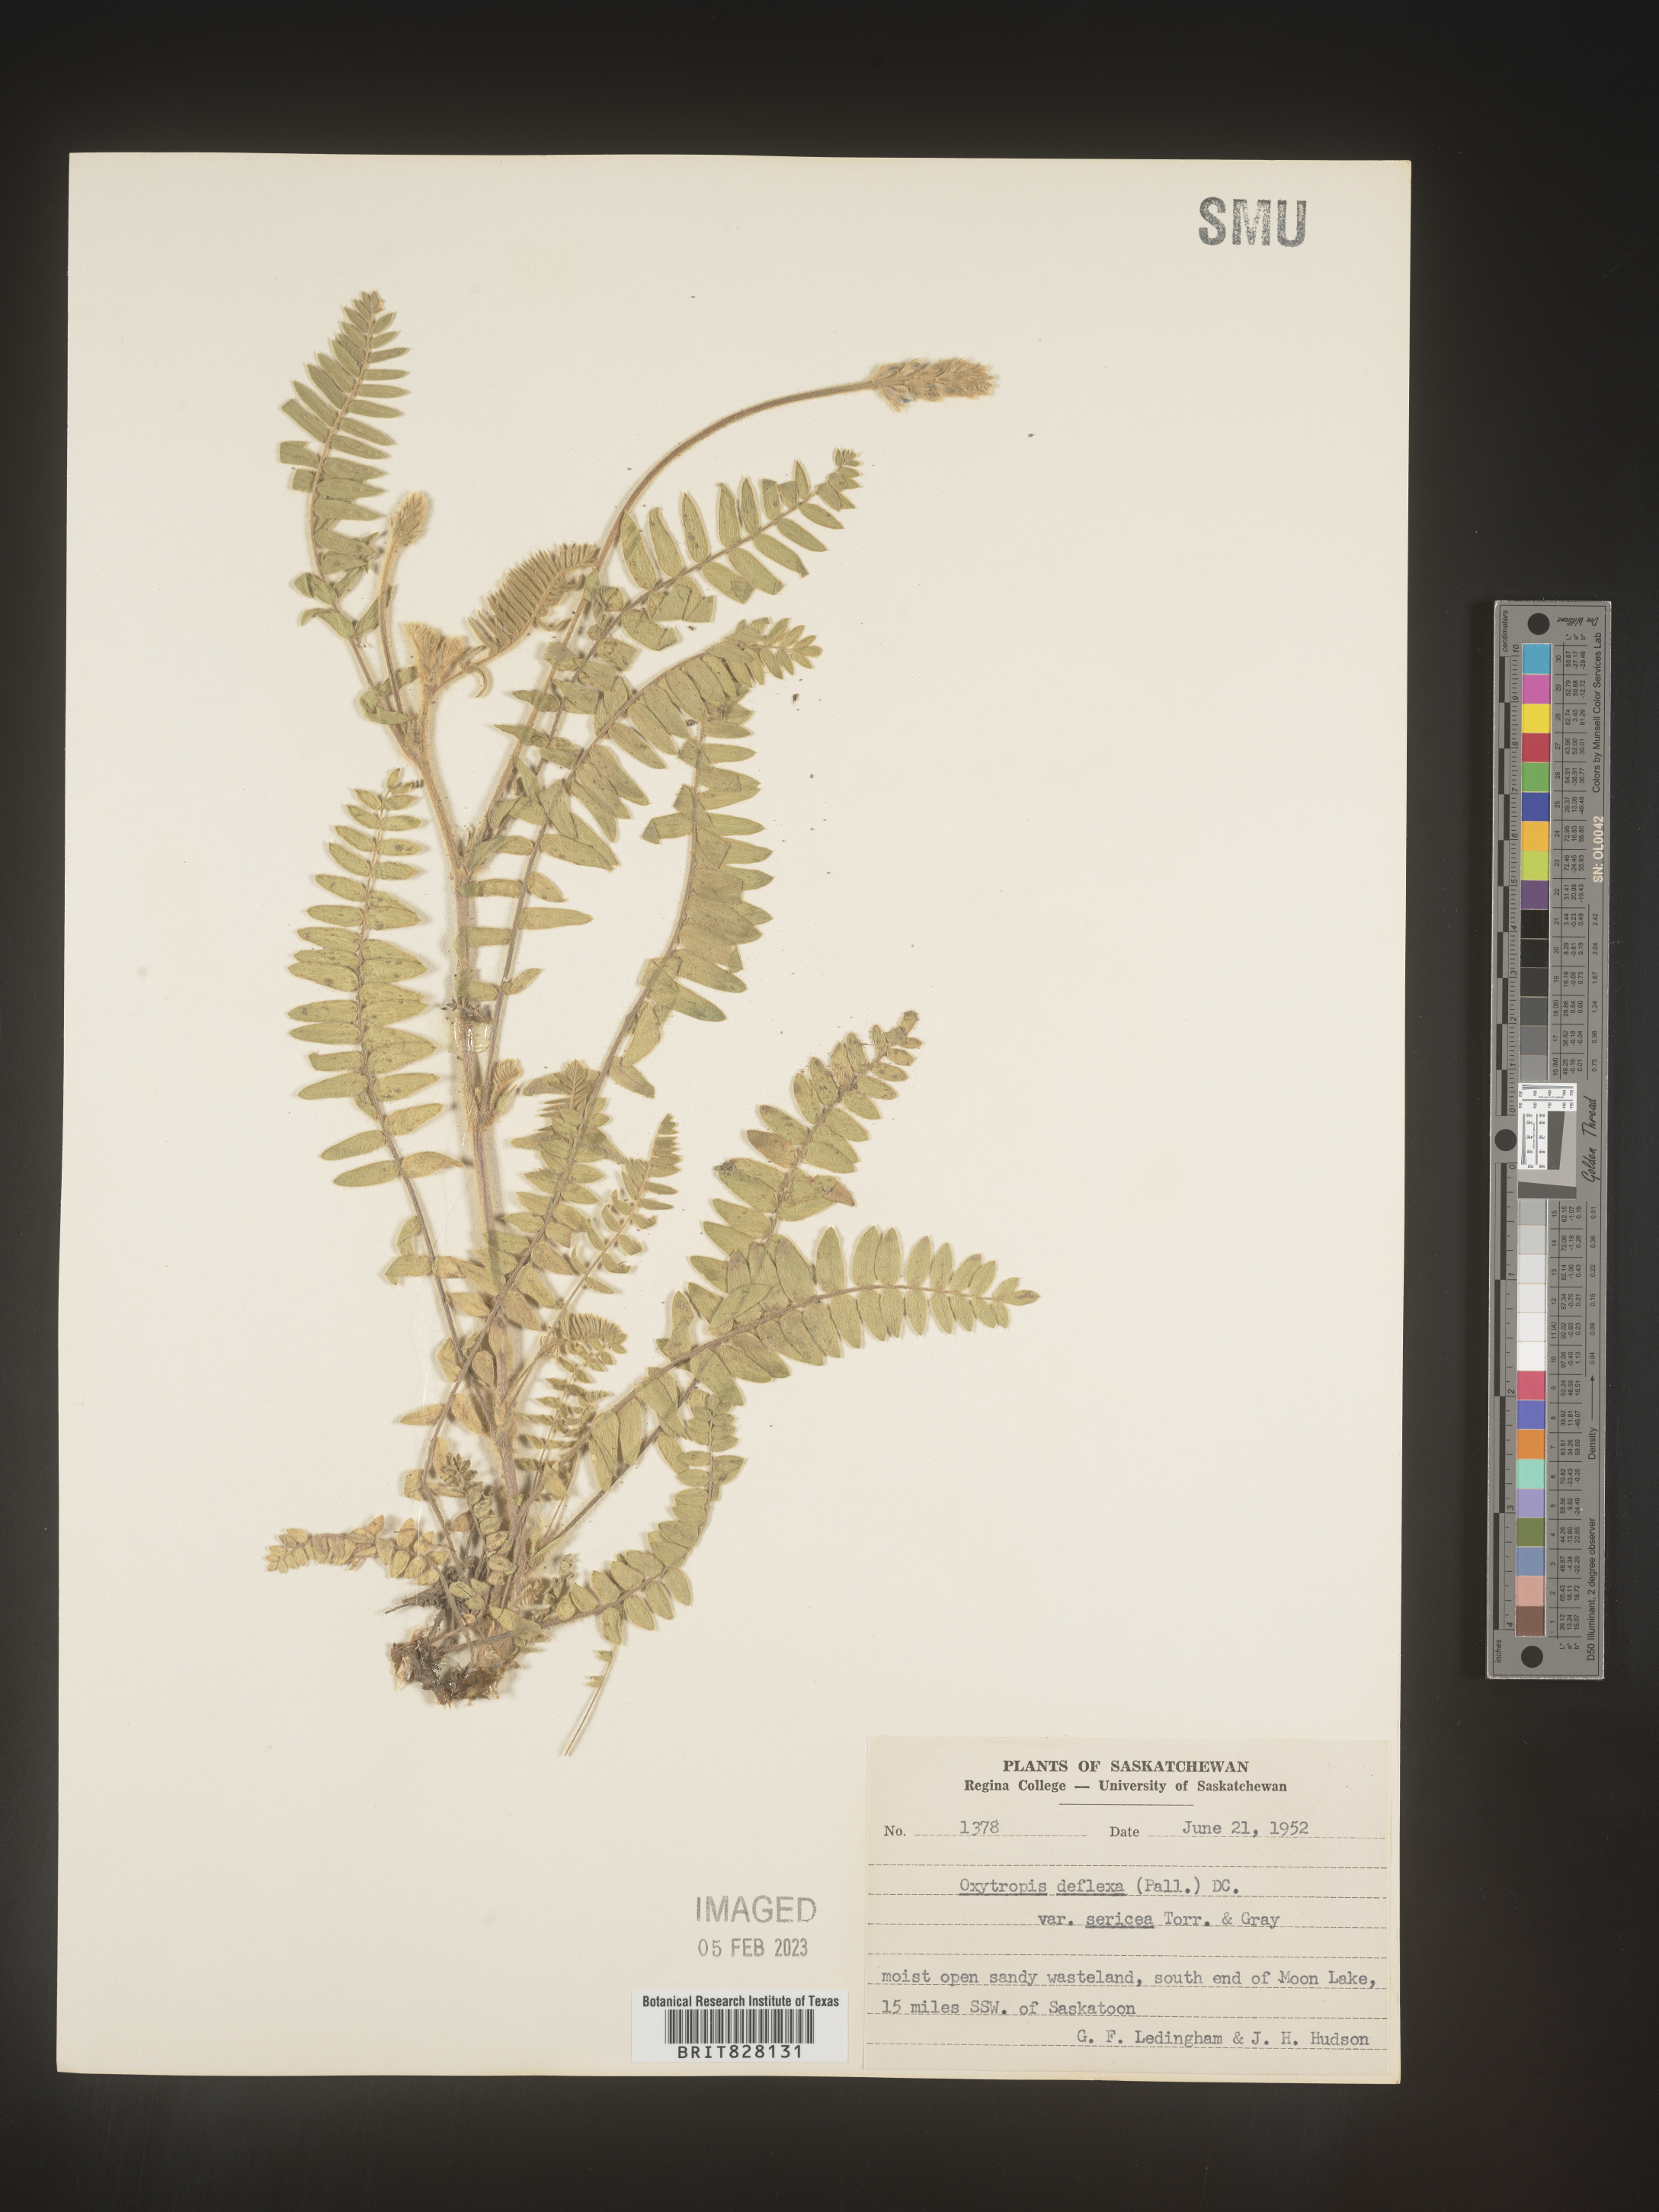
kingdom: Plantae
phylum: Tracheophyta
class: Magnoliopsida
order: Fabales
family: Fabaceae
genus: Oxytropis
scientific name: Oxytropis
